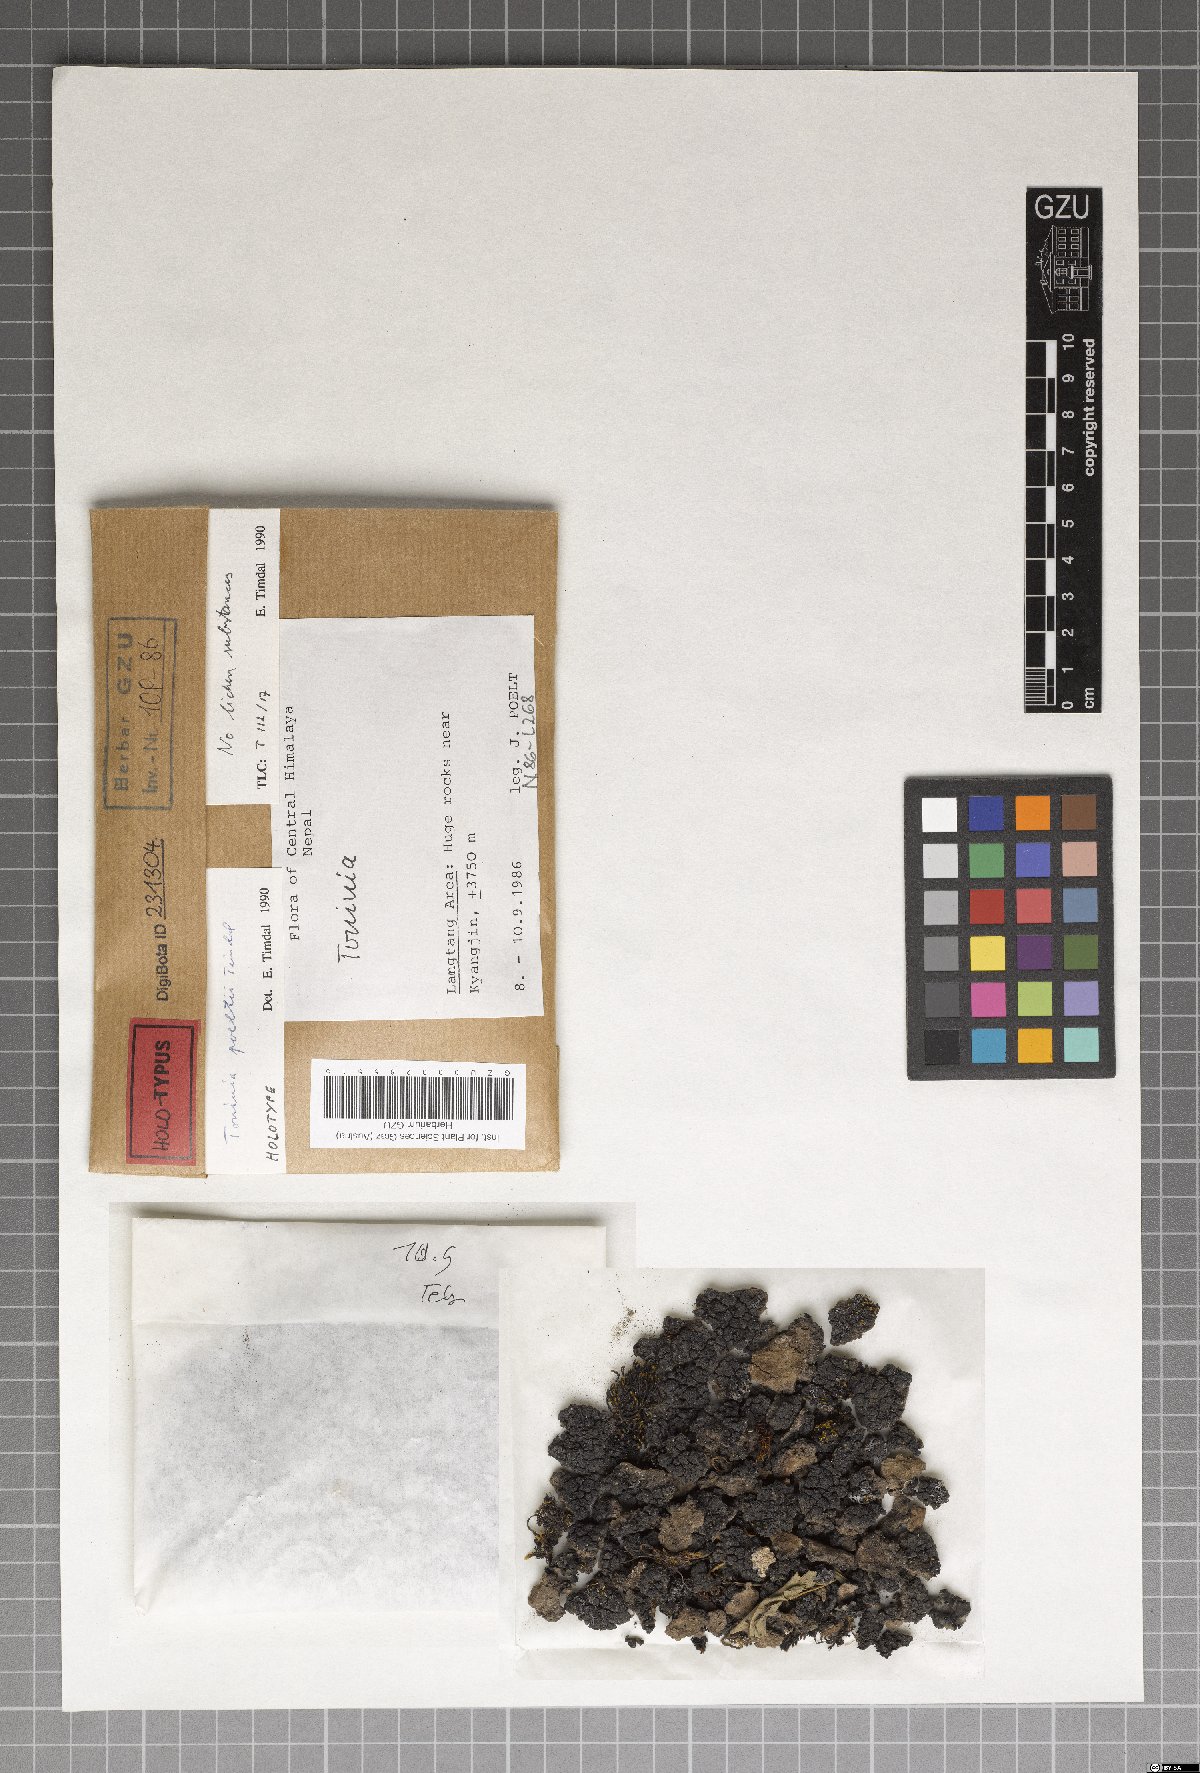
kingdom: Fungi
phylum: Ascomycota
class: Lecanoromycetes
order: Lecanorales
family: Ramalinaceae
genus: Toninia
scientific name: Toninia poeltii
